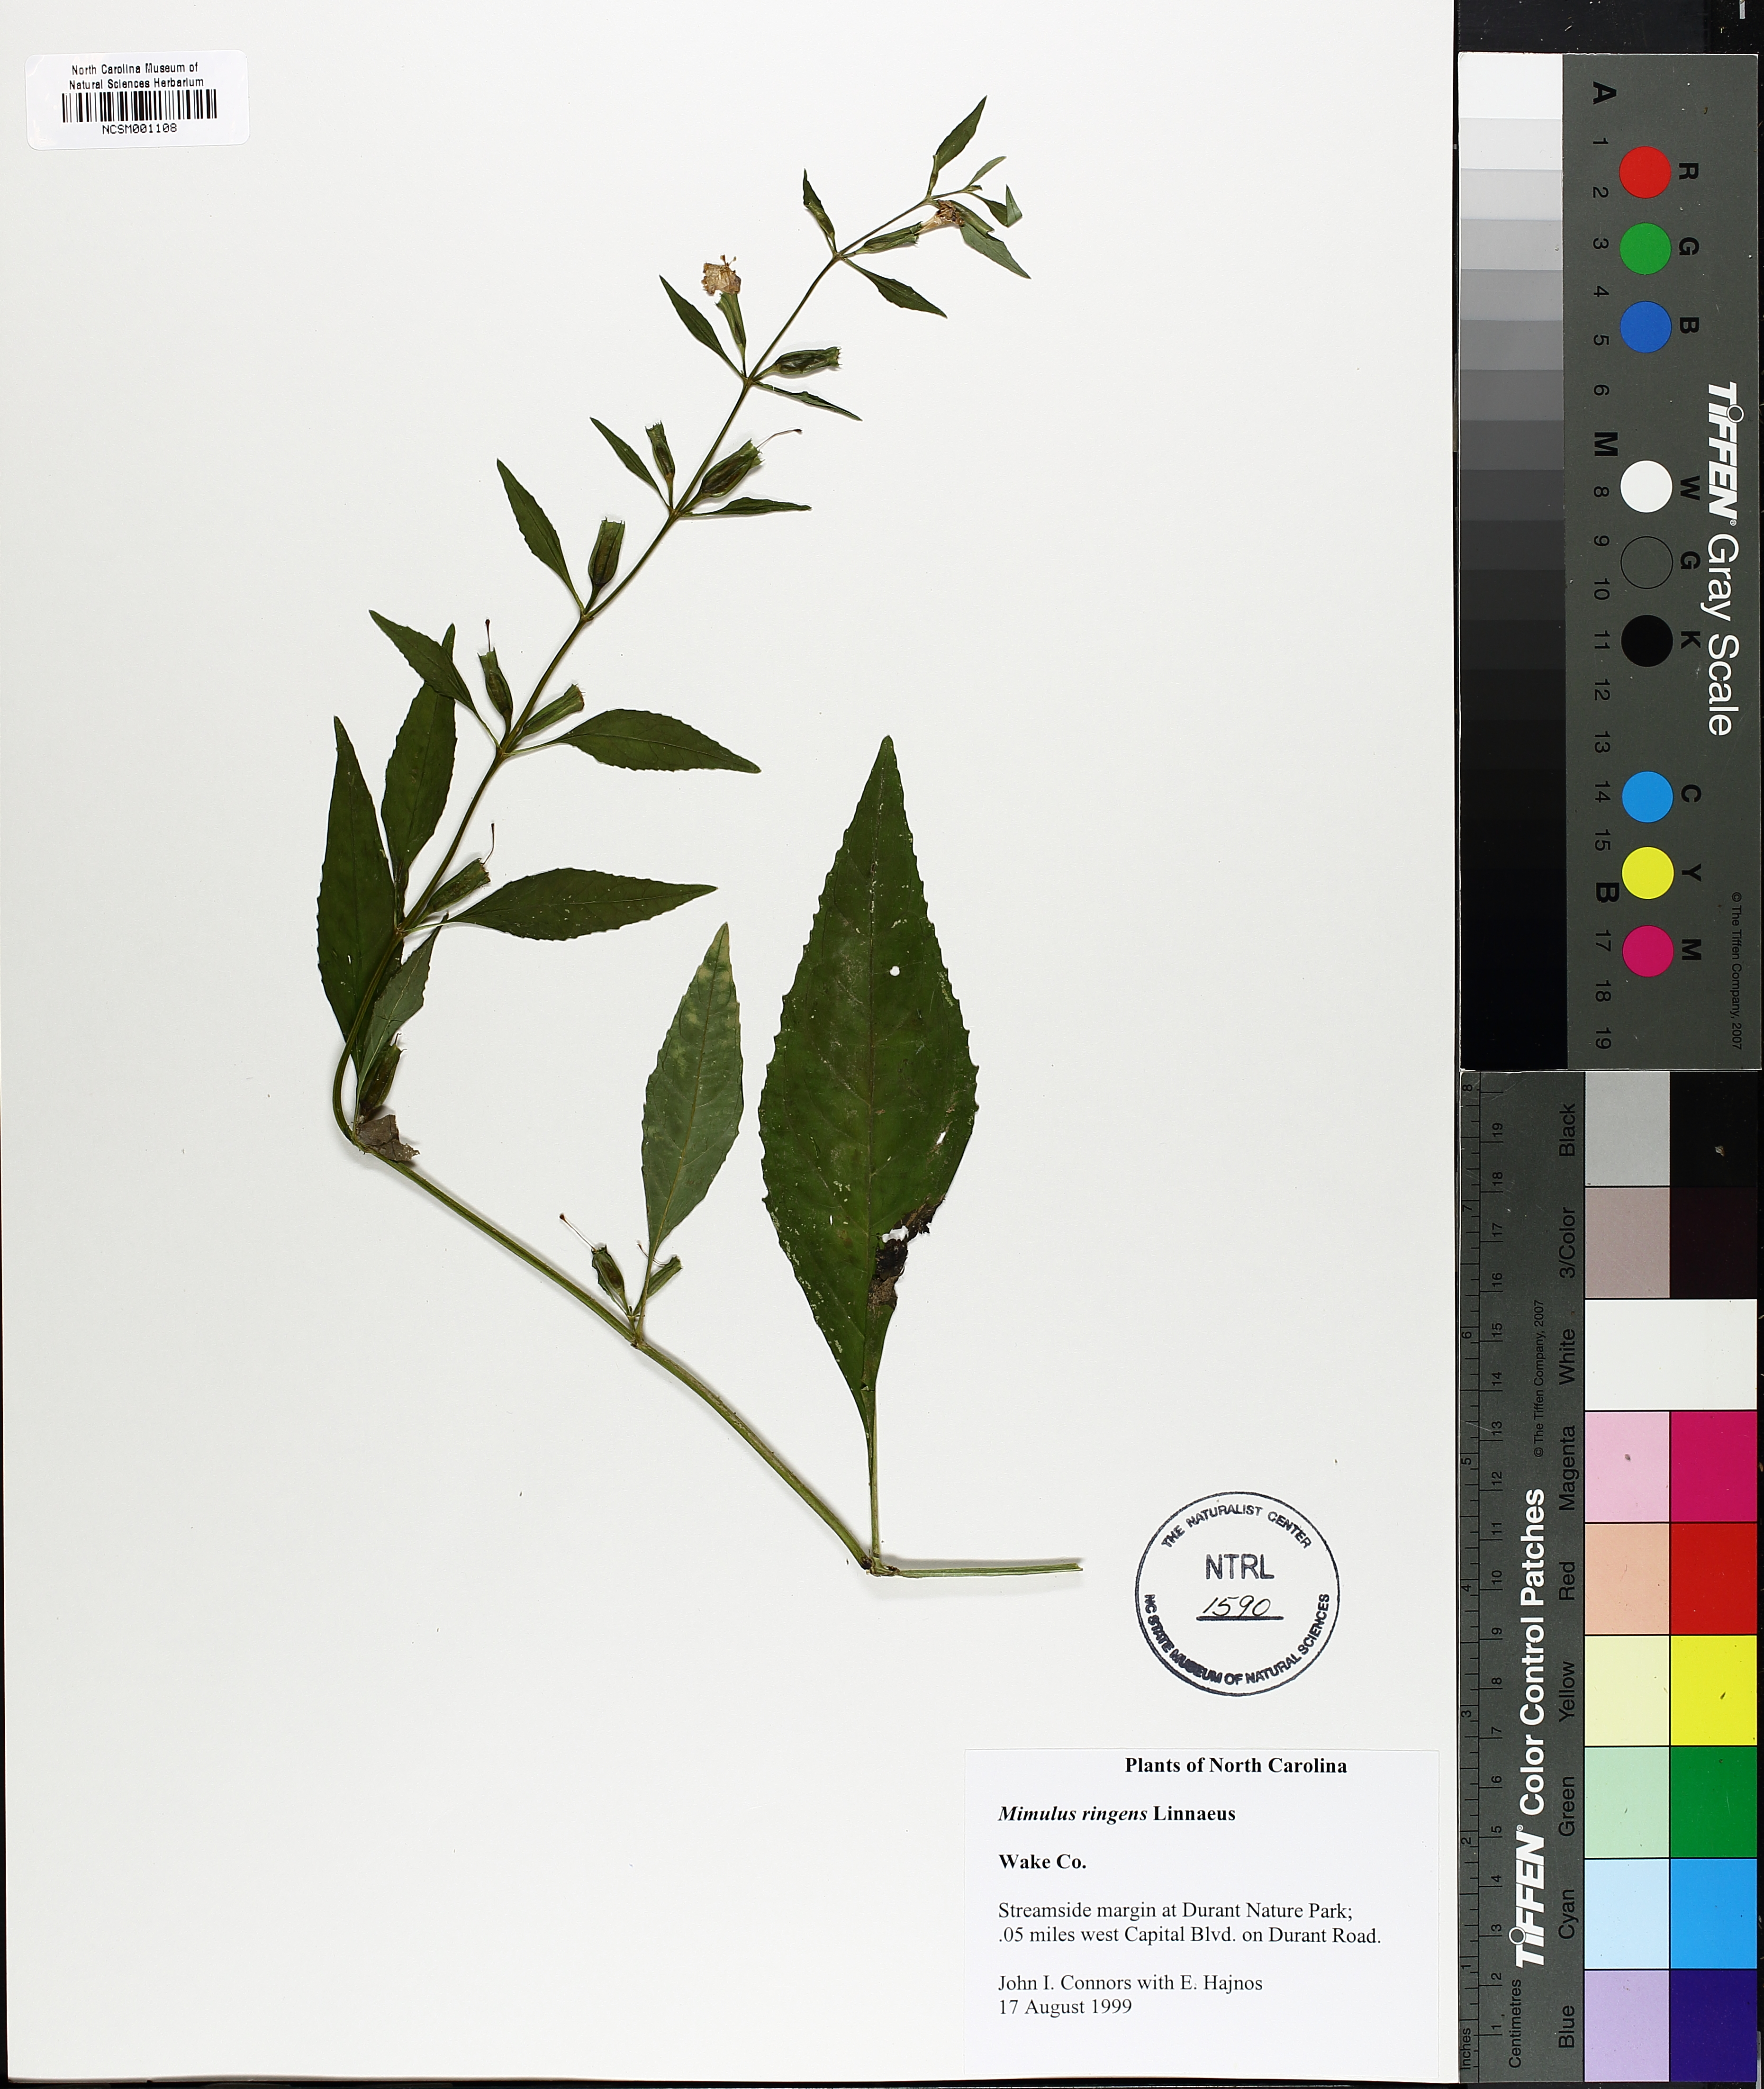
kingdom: Plantae
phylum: Tracheophyta
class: Magnoliopsida
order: Lamiales
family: Phrymaceae
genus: Mimulus
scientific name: Mimulus ringens
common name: Allegheny monkeyflower
